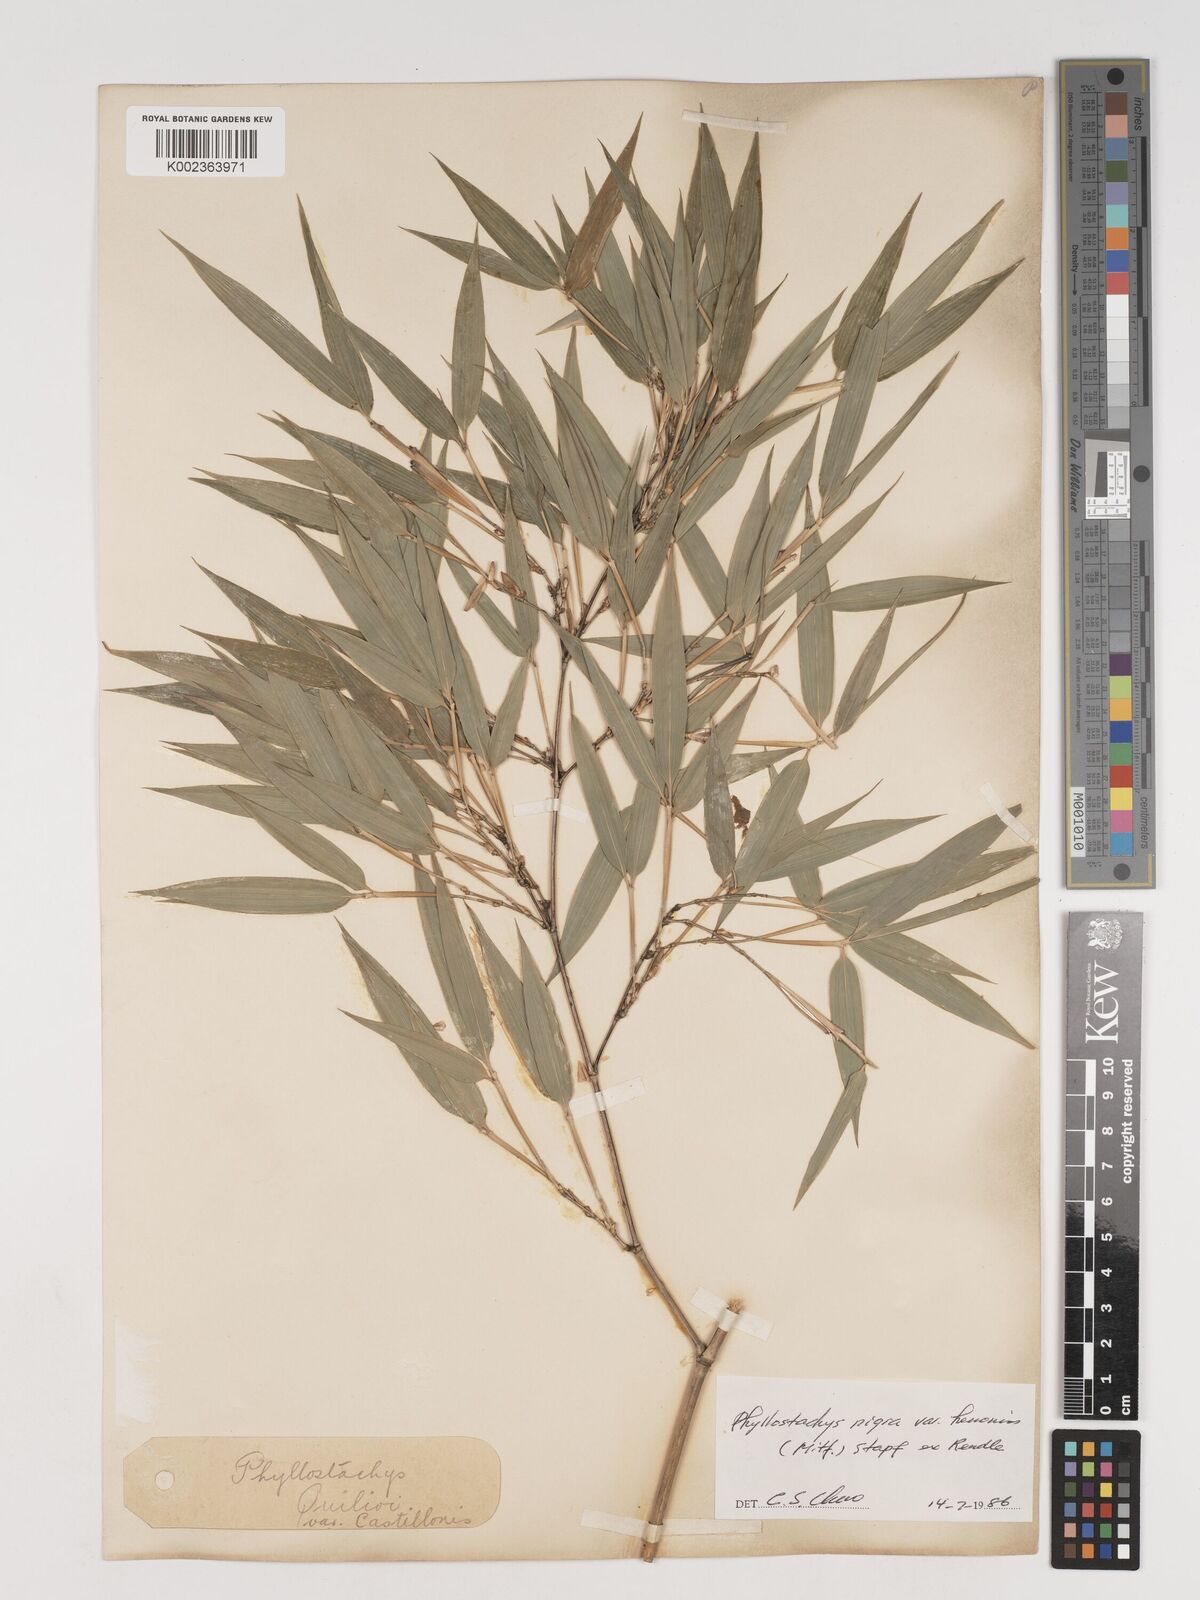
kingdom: Plantae
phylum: Tracheophyta
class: Liliopsida
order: Poales
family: Poaceae
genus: Phyllostachys
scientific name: Phyllostachys nigra
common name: Black bamboo
